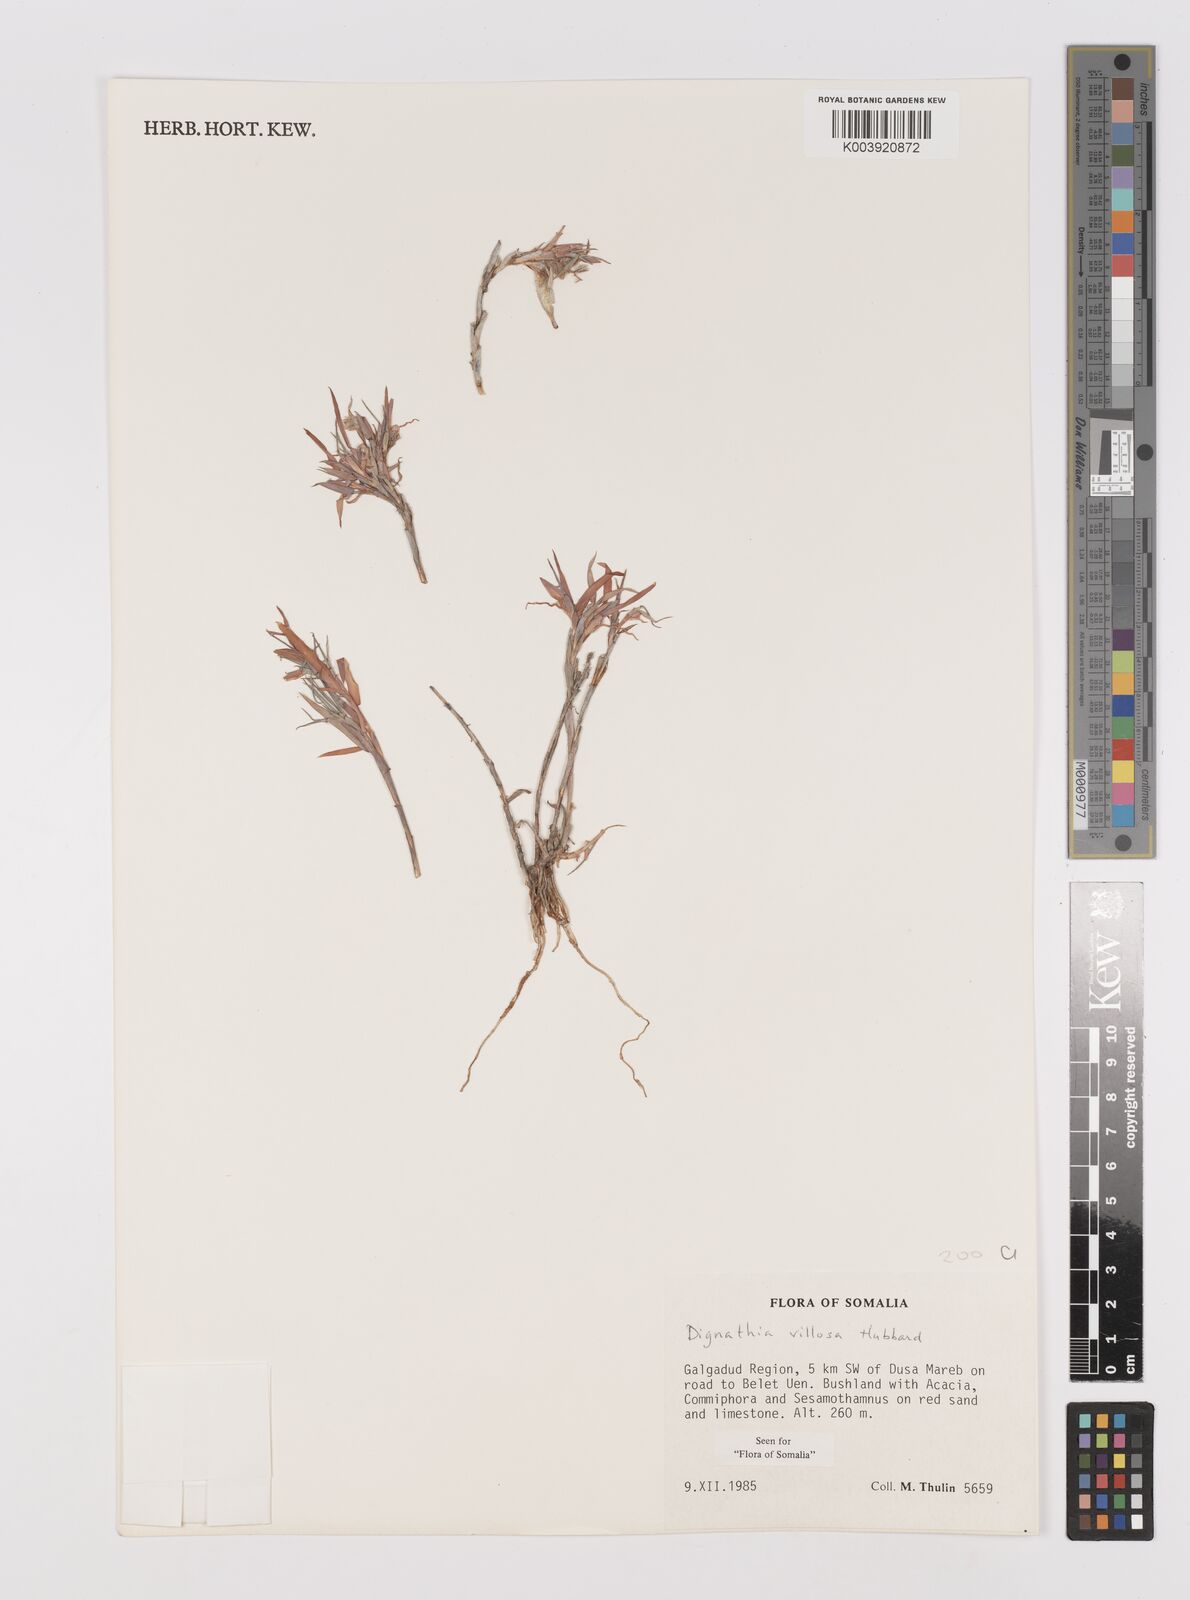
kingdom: Plantae
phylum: Tracheophyta
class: Liliopsida
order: Poales
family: Poaceae
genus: Dignathia
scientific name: Dignathia villosa
